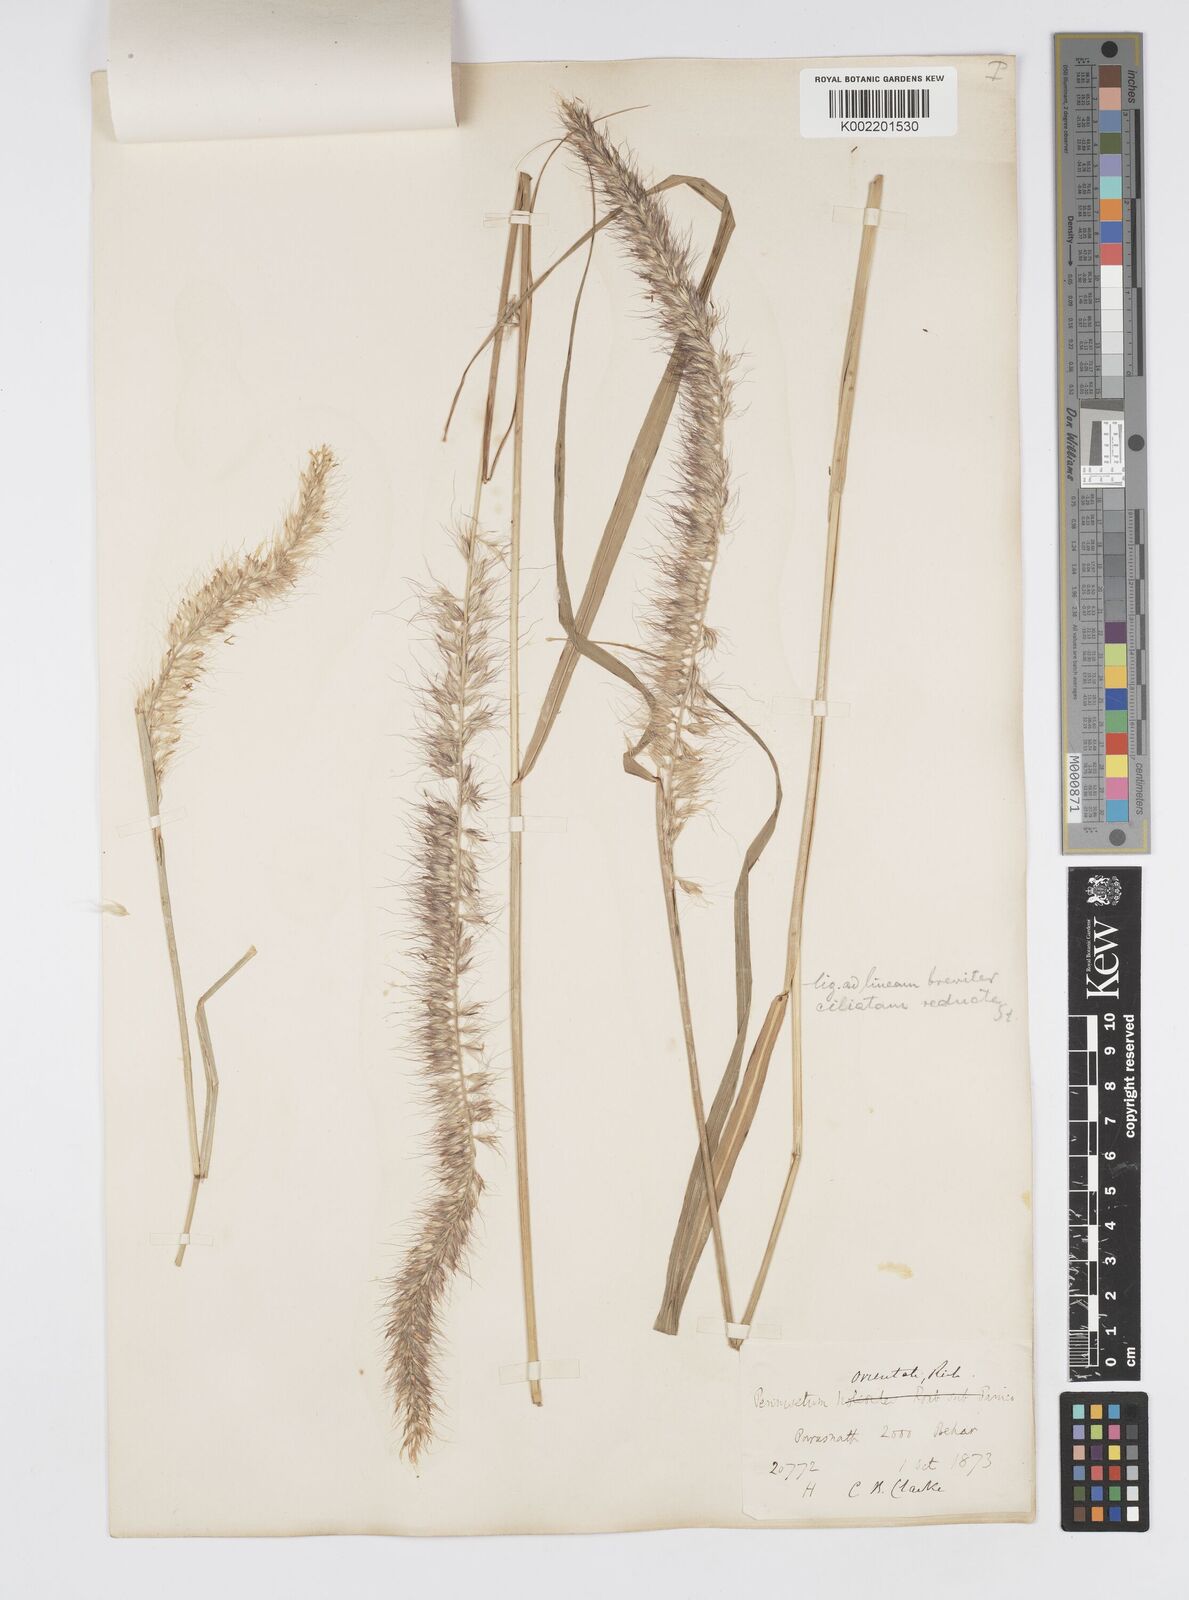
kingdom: Plantae
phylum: Tracheophyta
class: Liliopsida
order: Poales
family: Poaceae
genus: Cenchrus
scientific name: Cenchrus orientalis
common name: Oriental fountain grass
